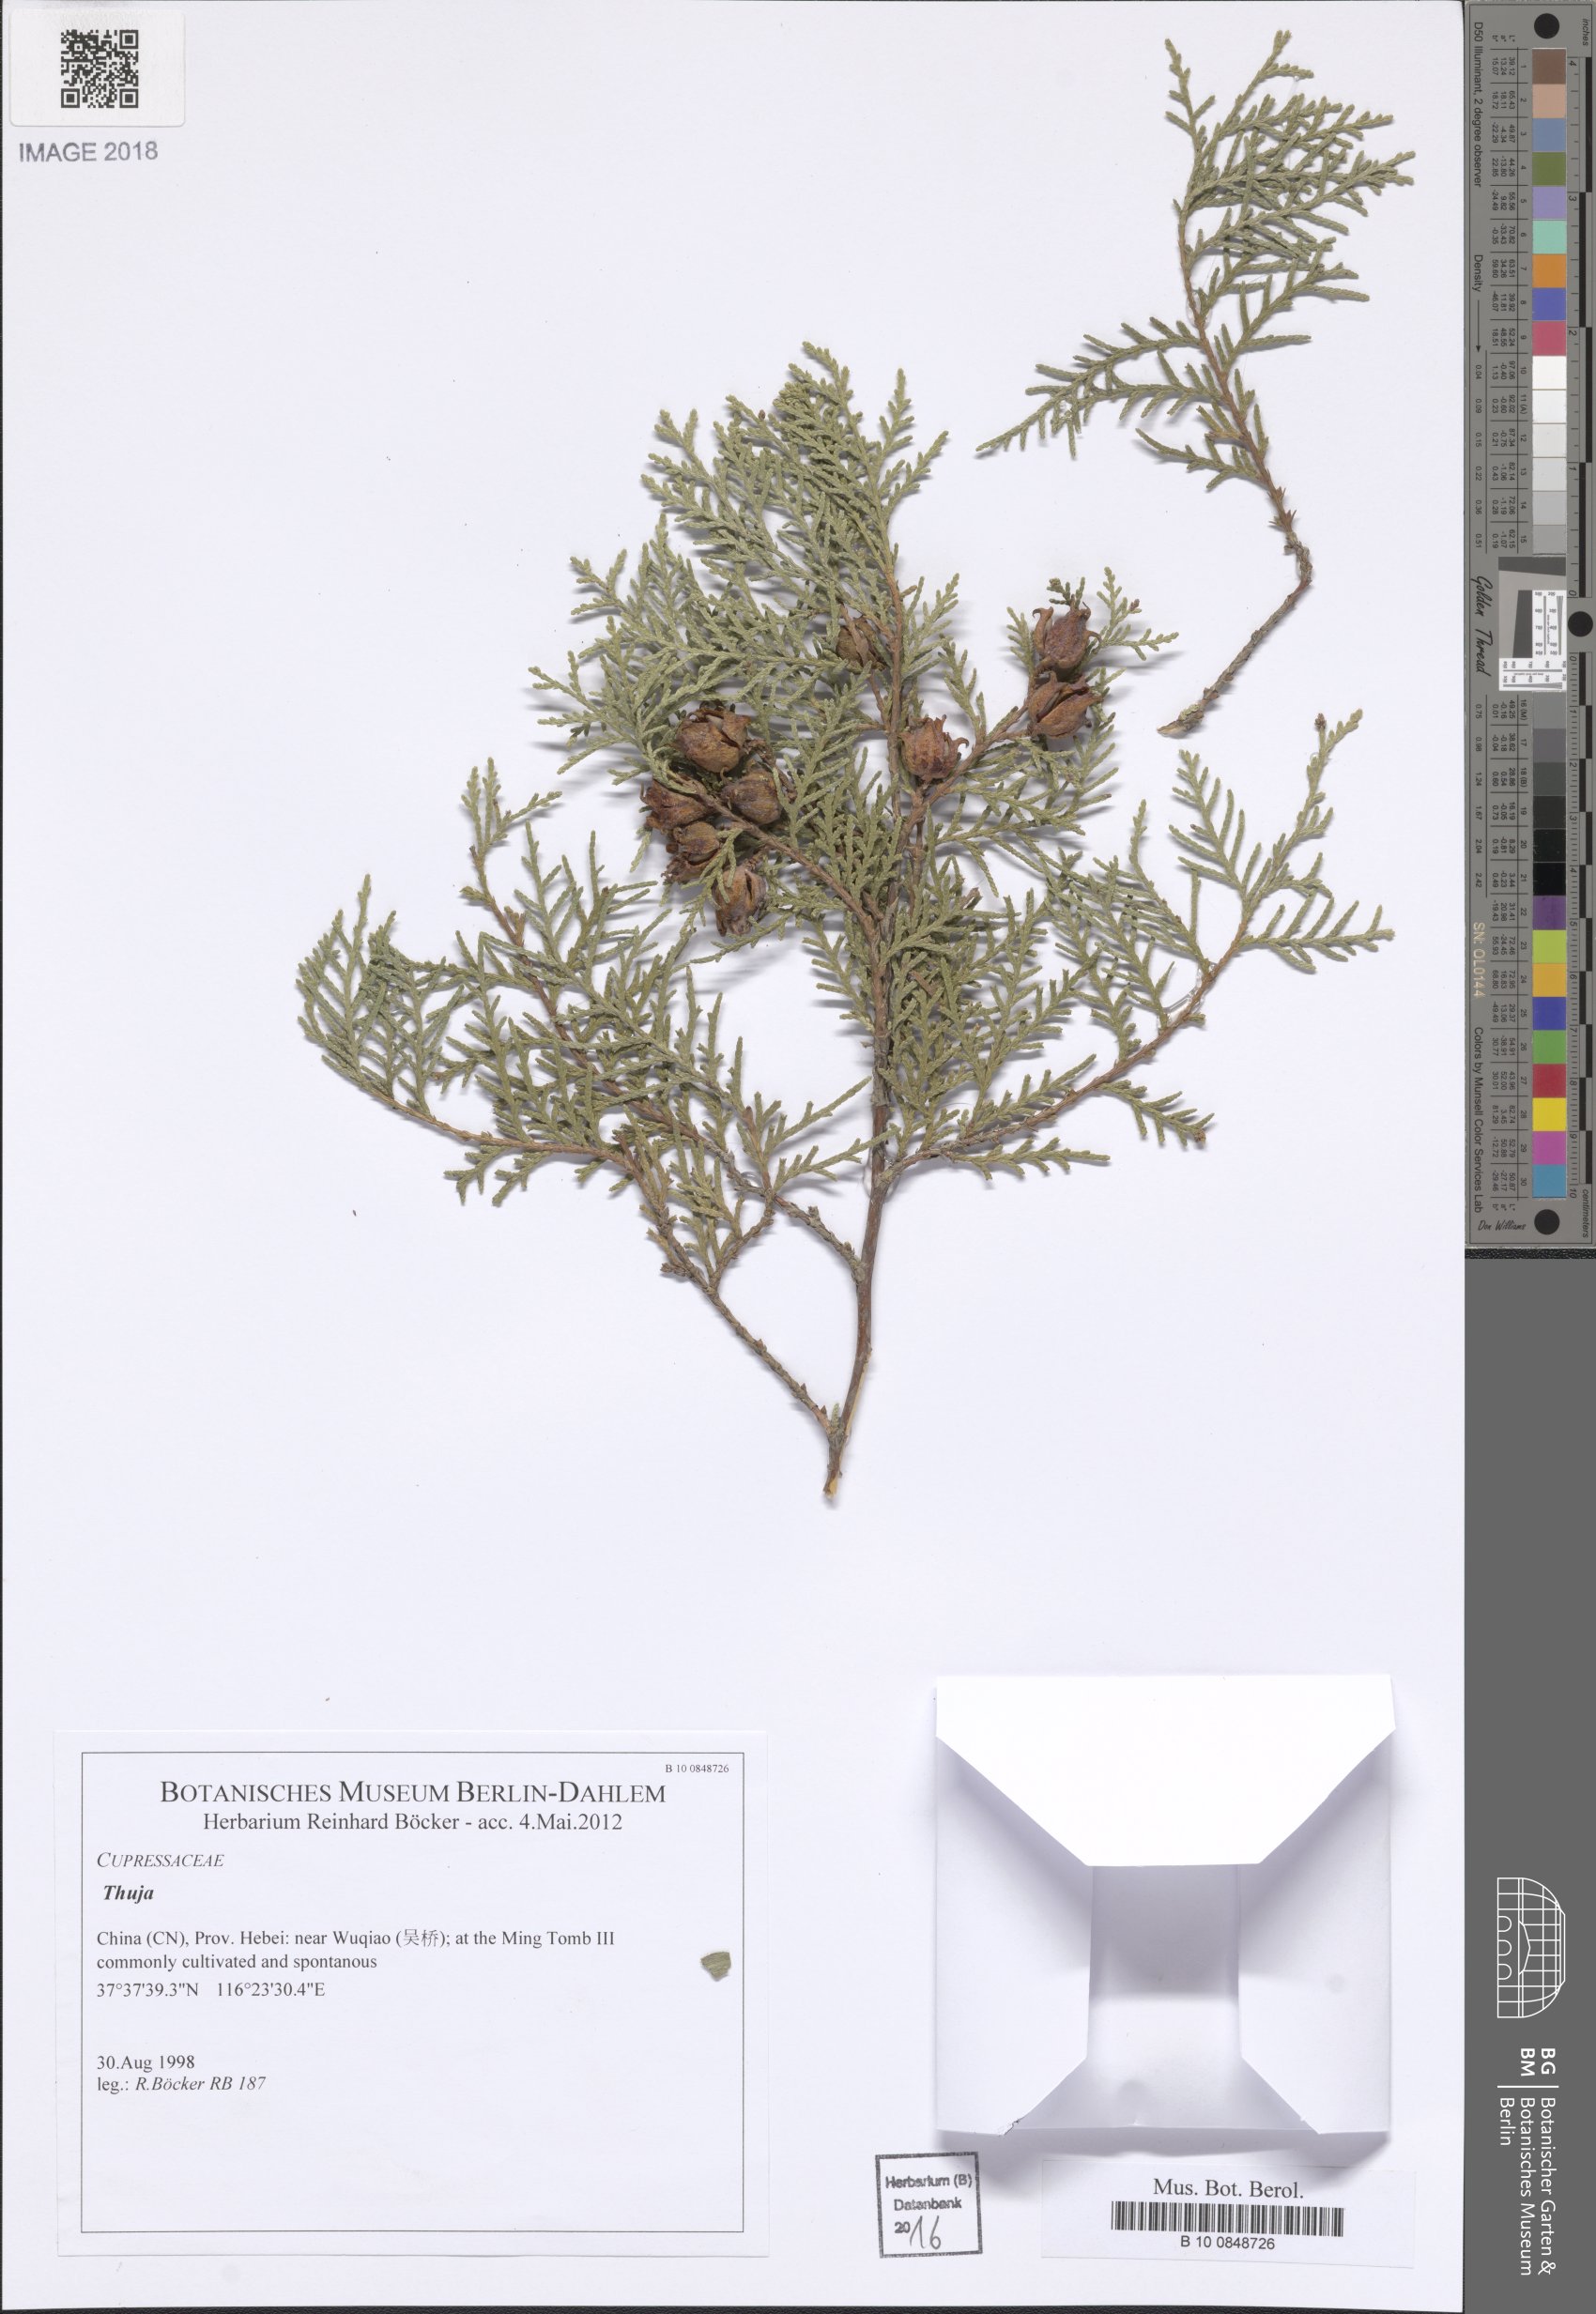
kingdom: Plantae
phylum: Tracheophyta
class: Pinopsida
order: Pinales
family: Cupressaceae
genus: Thuja
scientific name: Thuja
